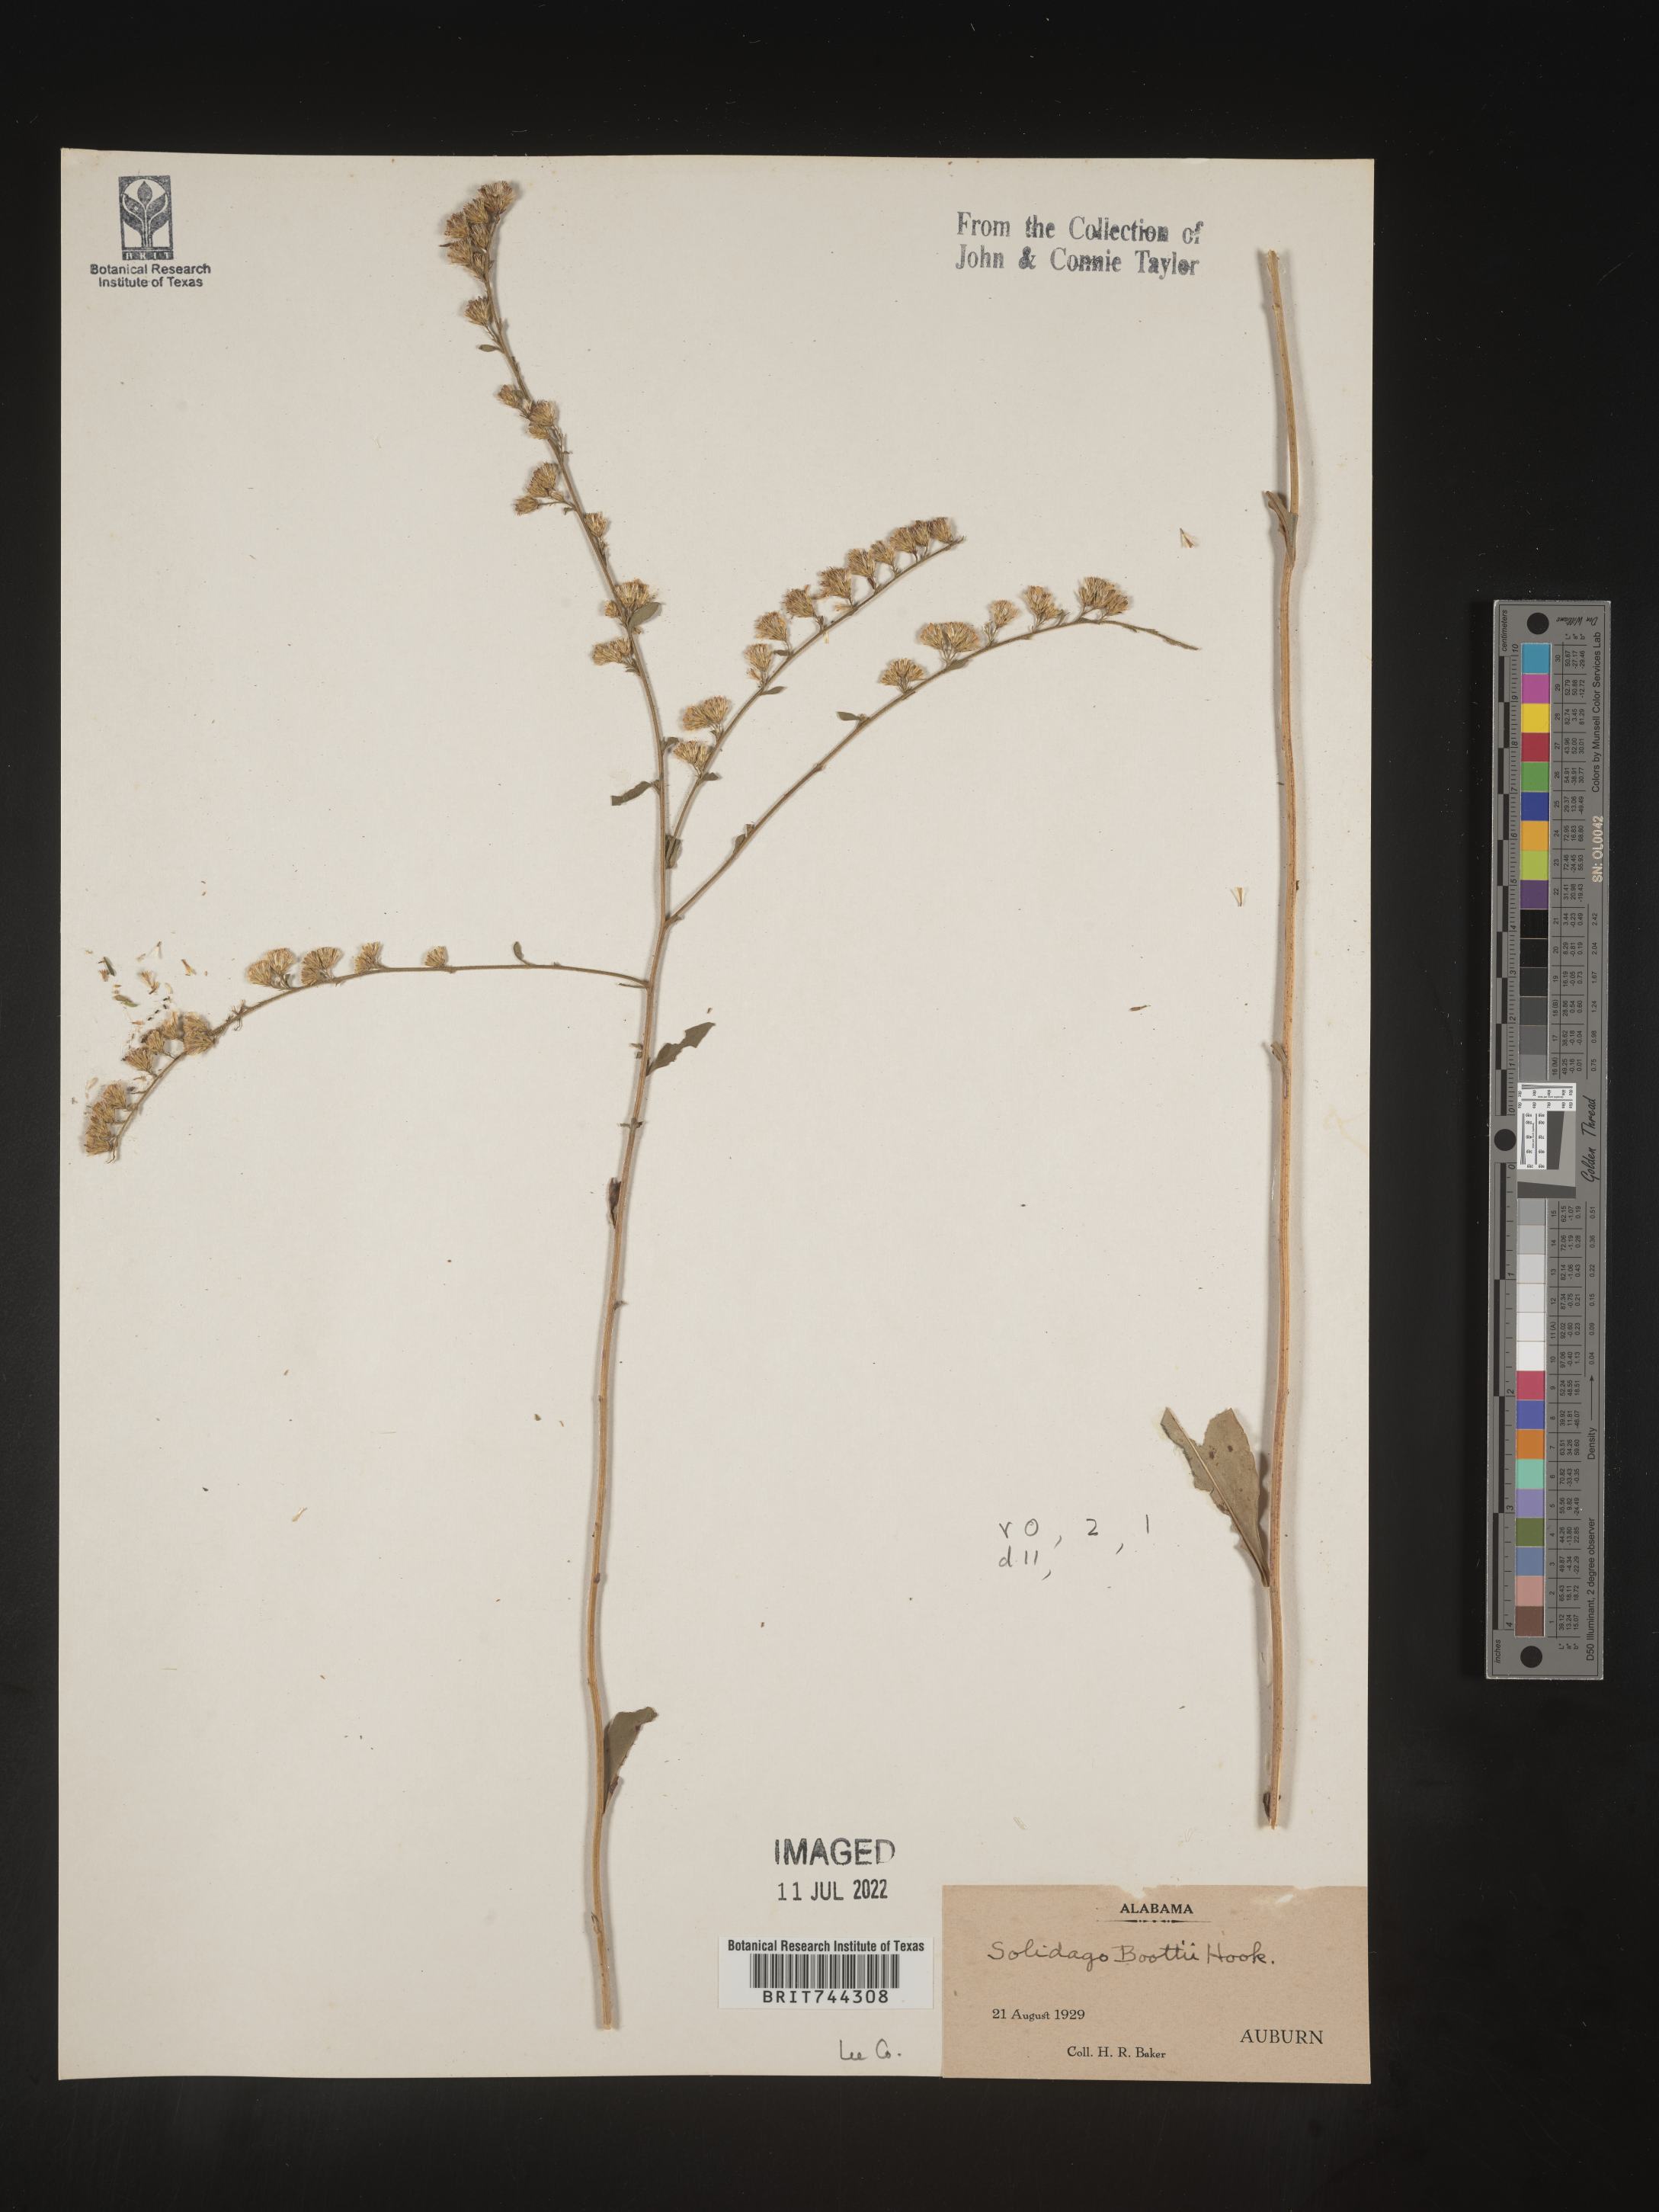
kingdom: Plantae
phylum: Tracheophyta
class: Magnoliopsida
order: Asterales
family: Asteraceae
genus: Solidago
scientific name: Solidago arguta
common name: Atlantic goldenrod
